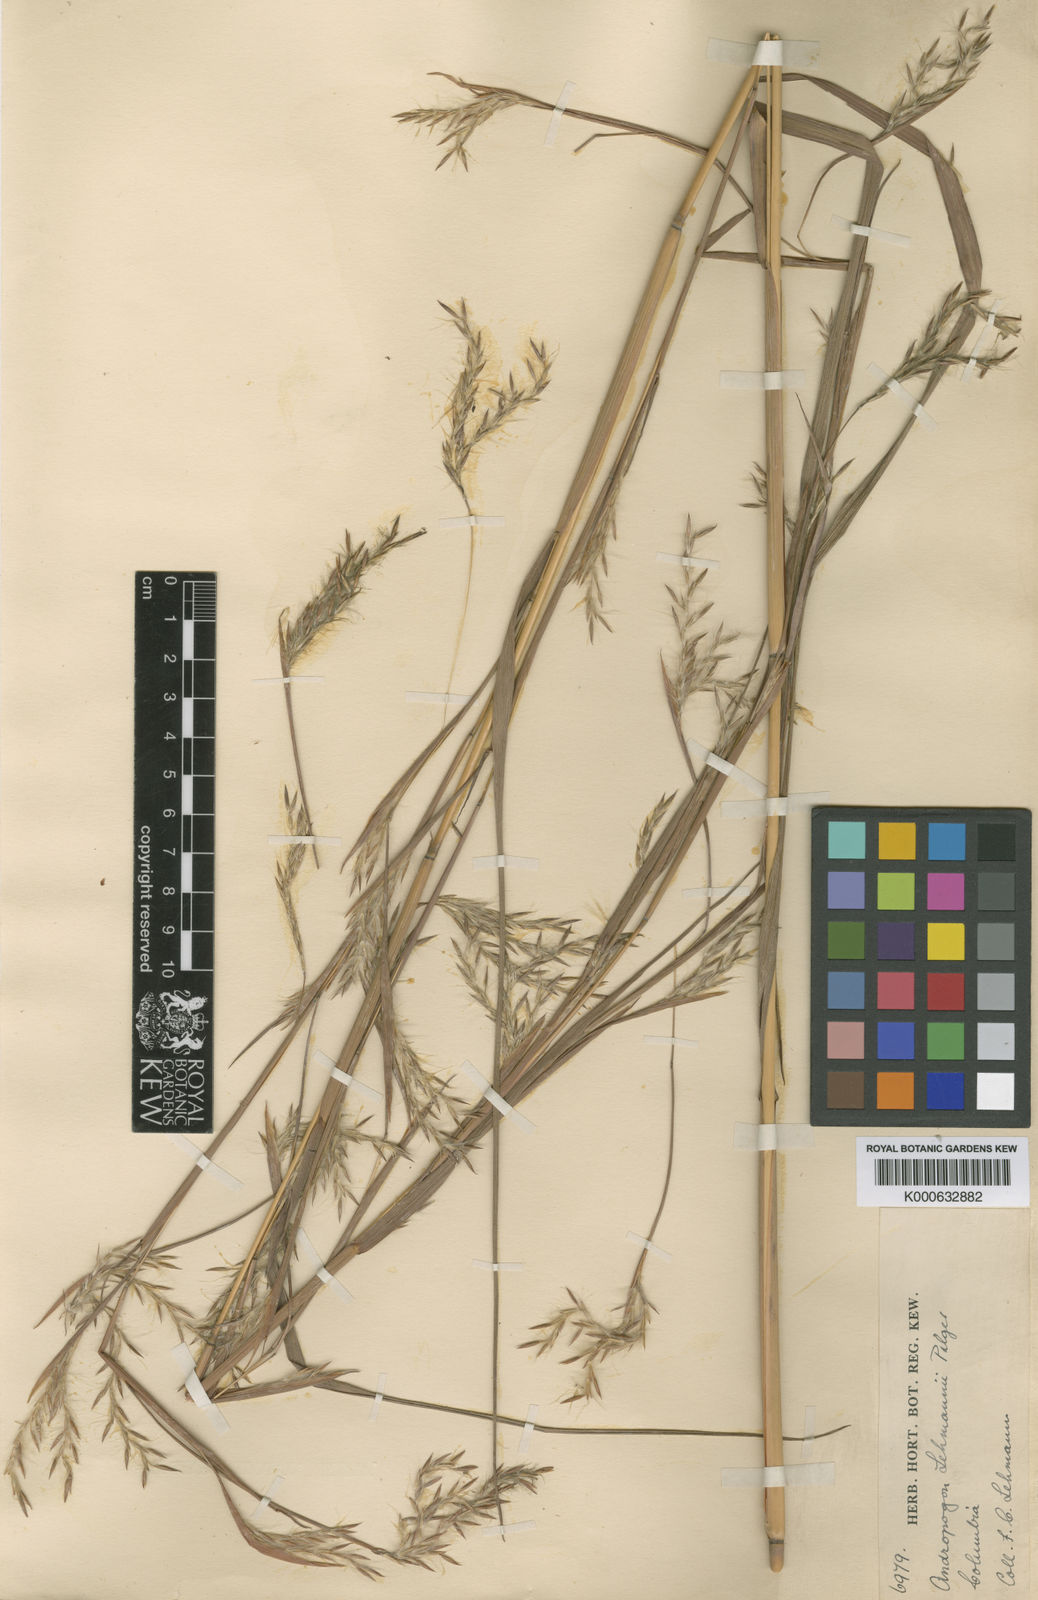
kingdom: Plantae
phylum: Tracheophyta
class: Liliopsida
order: Poales
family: Poaceae
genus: Andropogon
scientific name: Andropogon lehmannii
